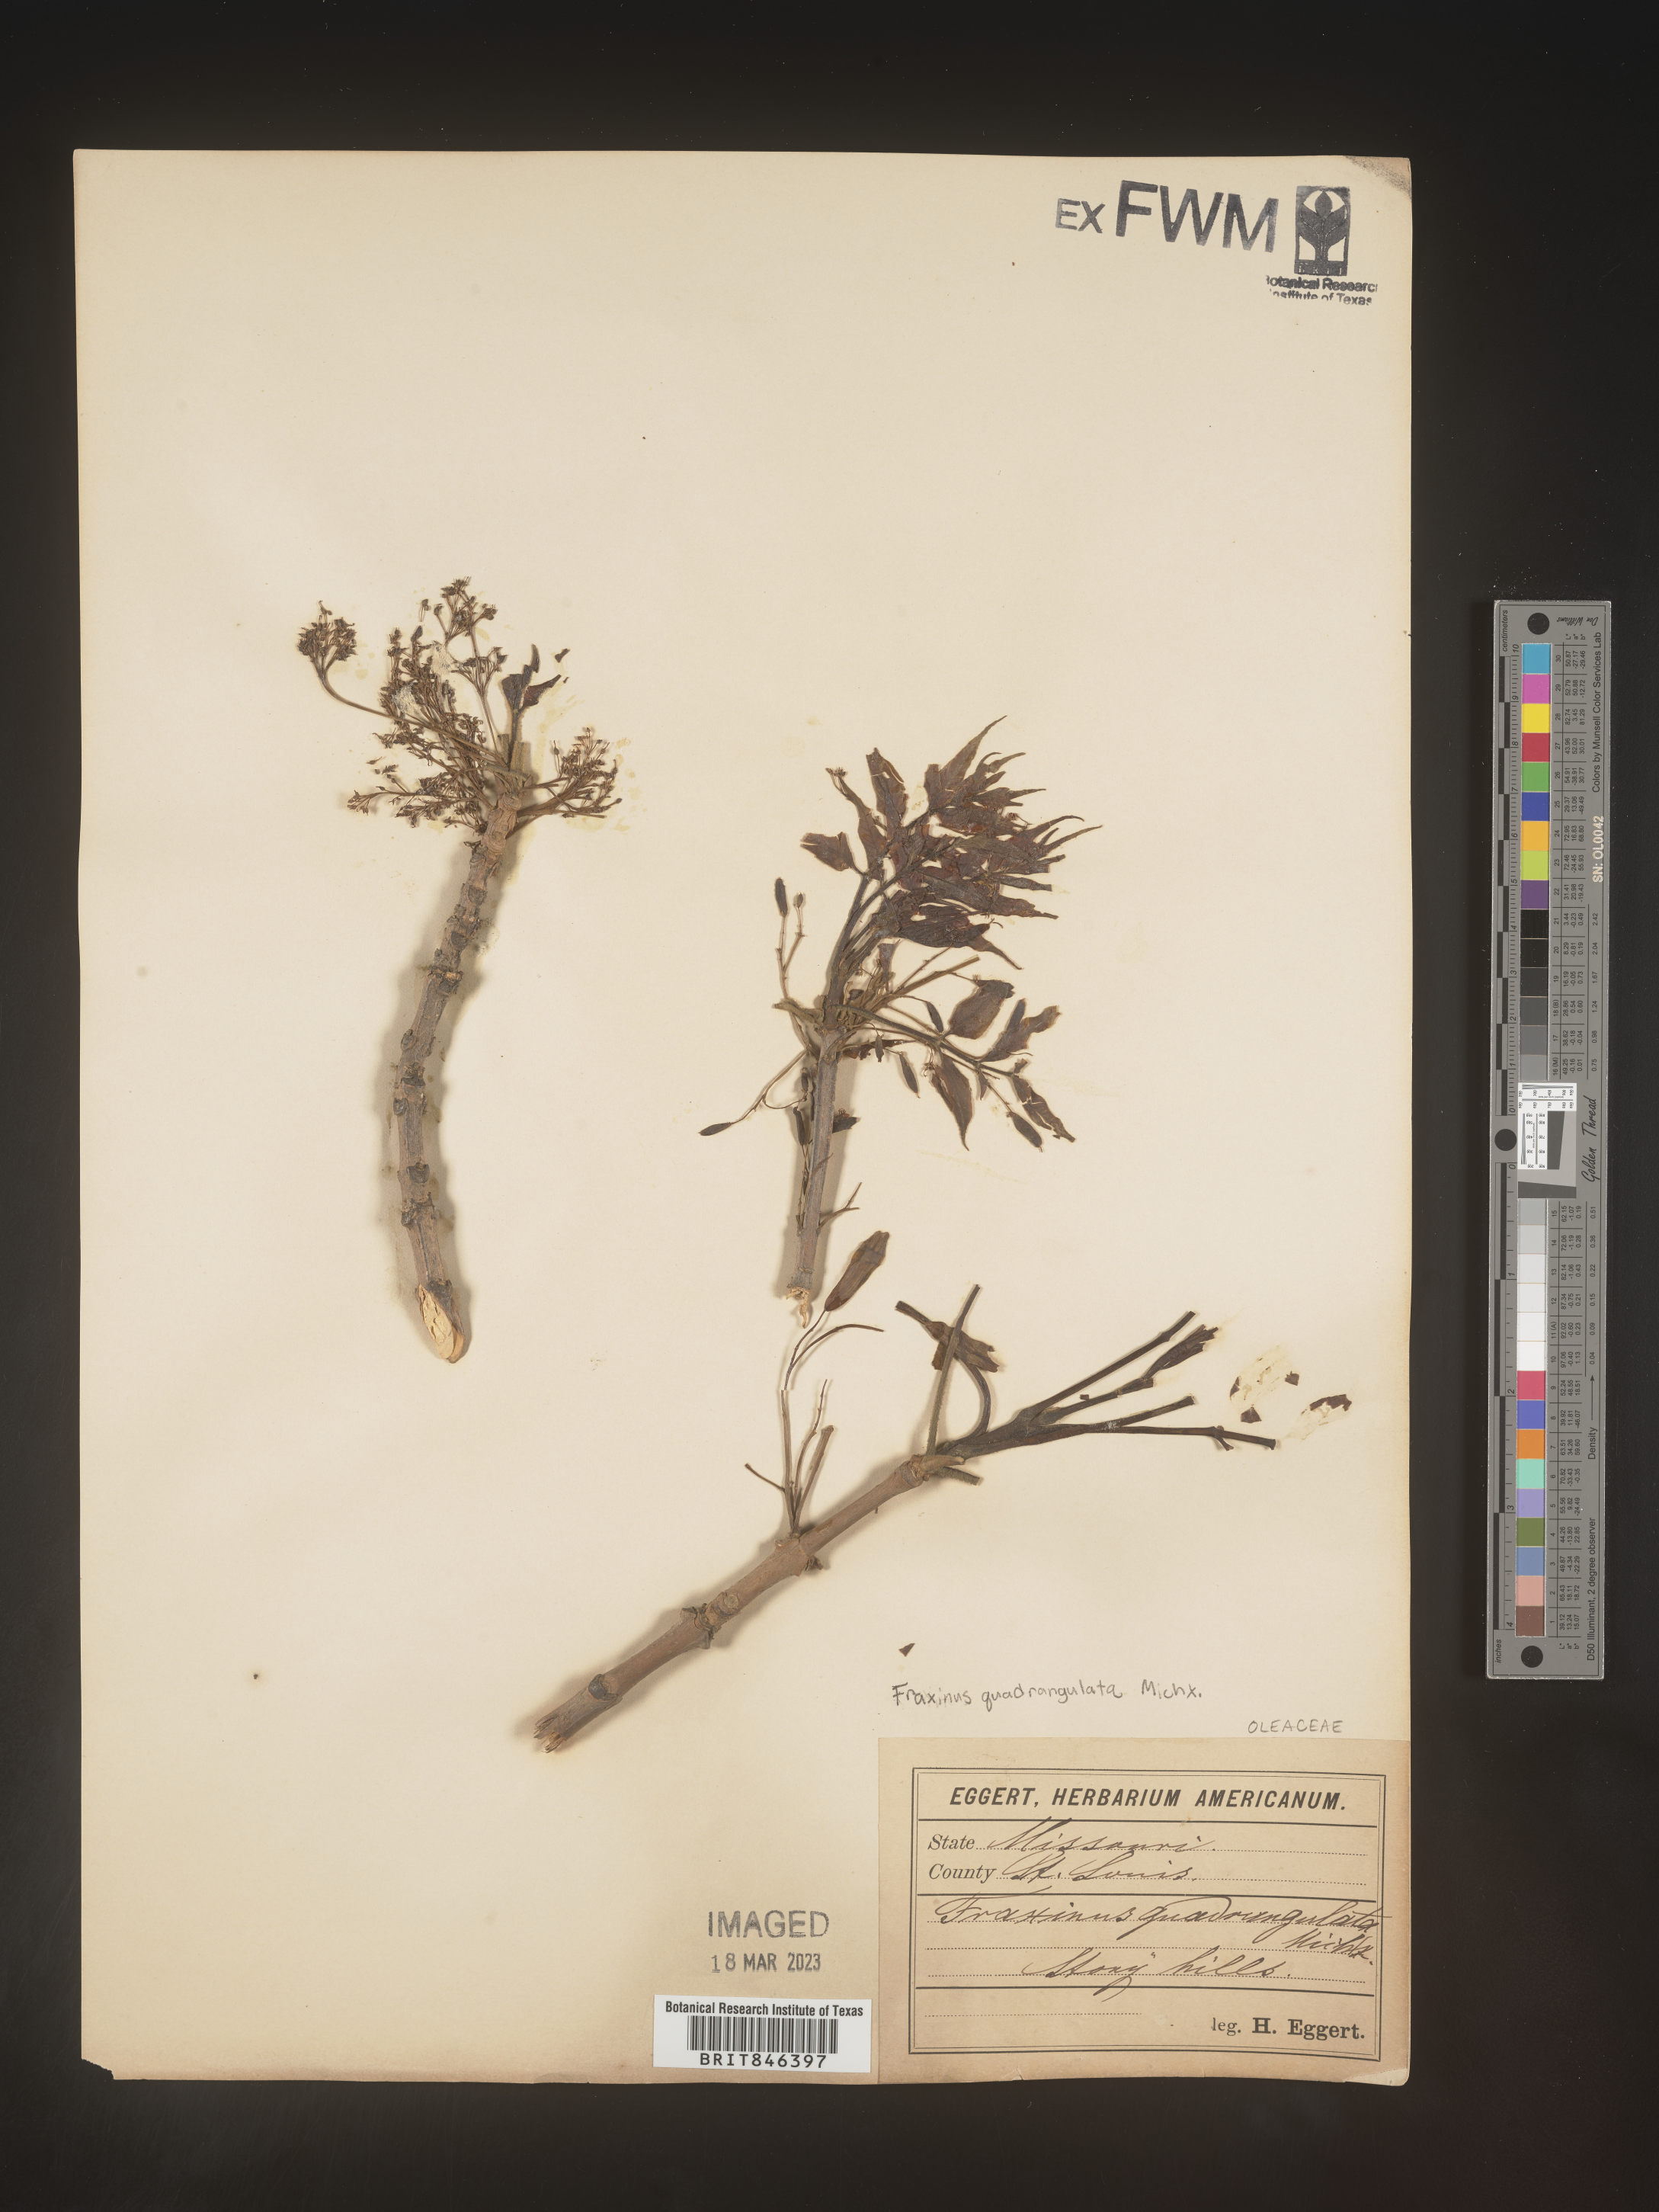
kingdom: Plantae
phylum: Tracheophyta
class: Magnoliopsida
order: Lamiales
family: Oleaceae
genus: Fraxinus
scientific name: Fraxinus quadrangulata
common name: Blue ash
